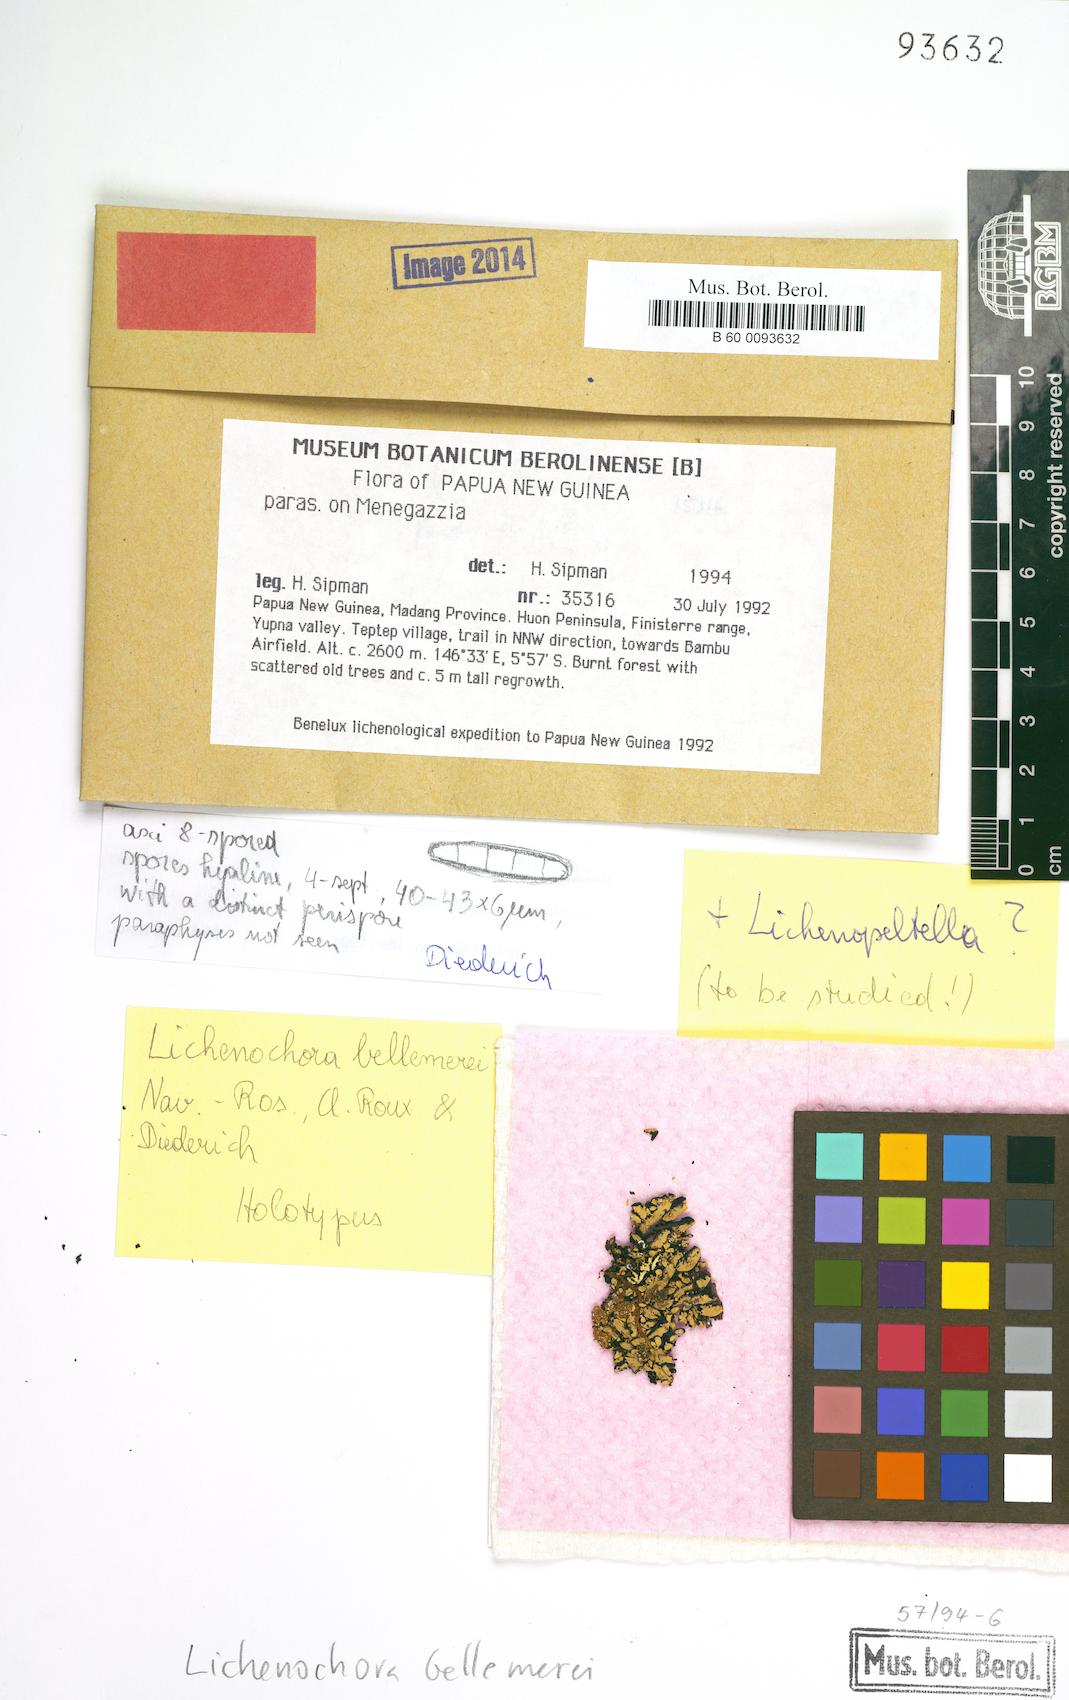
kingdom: Fungi
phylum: Ascomycota
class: Sordariomycetes
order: Phyllachorales
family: Phyllachoraceae
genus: Lichenochora
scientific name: Lichenochora bellemerei
